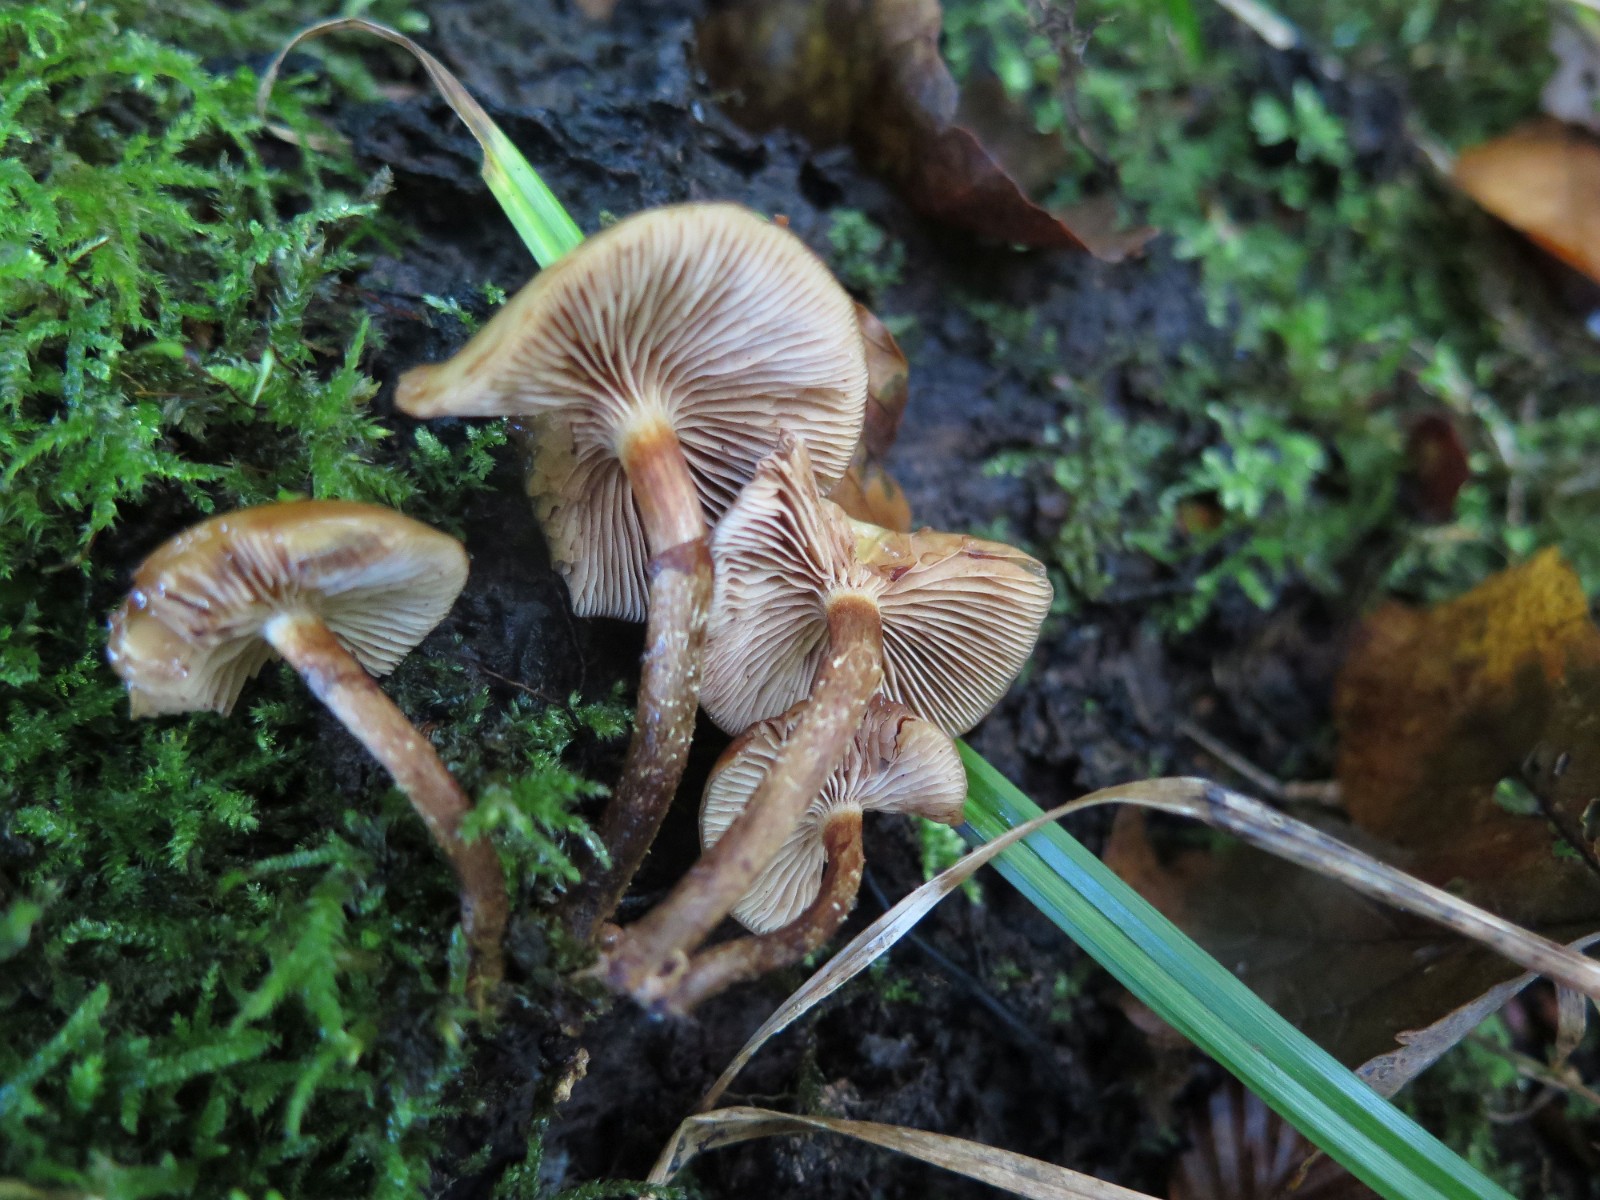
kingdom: Fungi
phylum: Basidiomycota
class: Agaricomycetes
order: Agaricales
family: Strophariaceae
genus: Kuehneromyces
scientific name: Kuehneromyces mutabilis
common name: foranderlig skælhat
